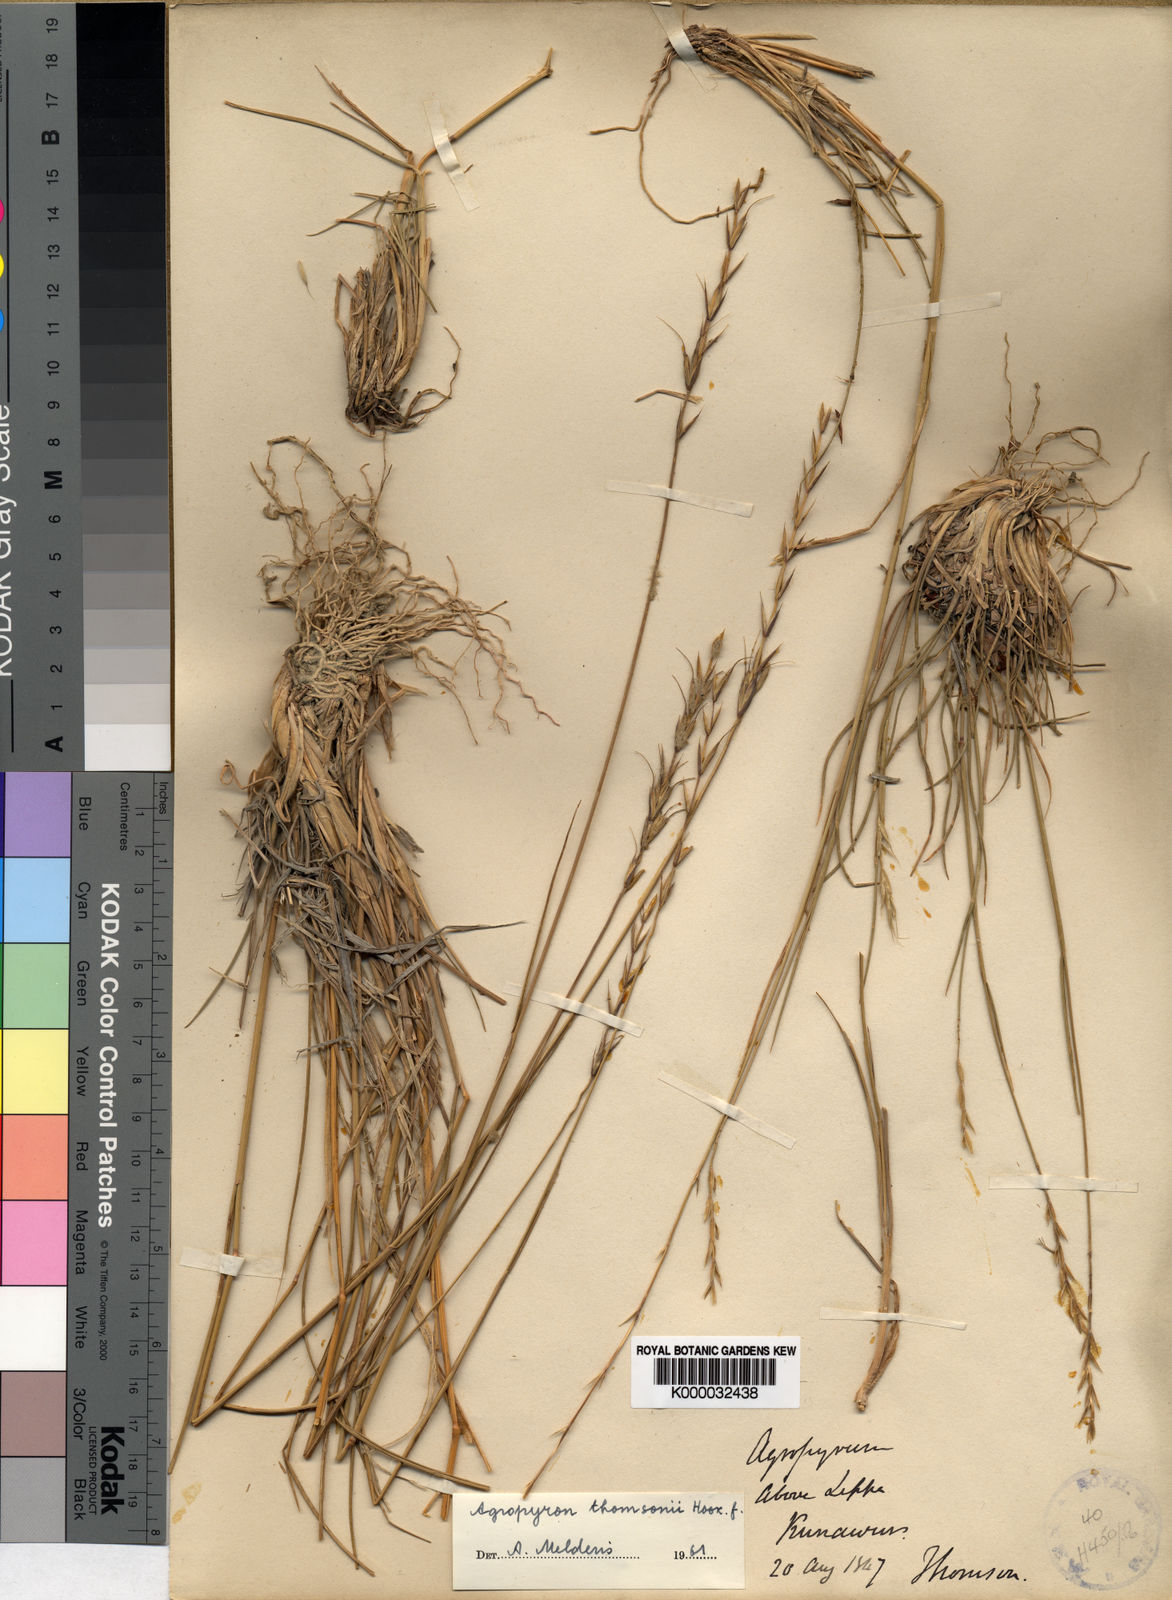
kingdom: Plantae
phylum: Tracheophyta
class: Liliopsida
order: Poales
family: Poaceae
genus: Agropyron
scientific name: Agropyron thomsonii
